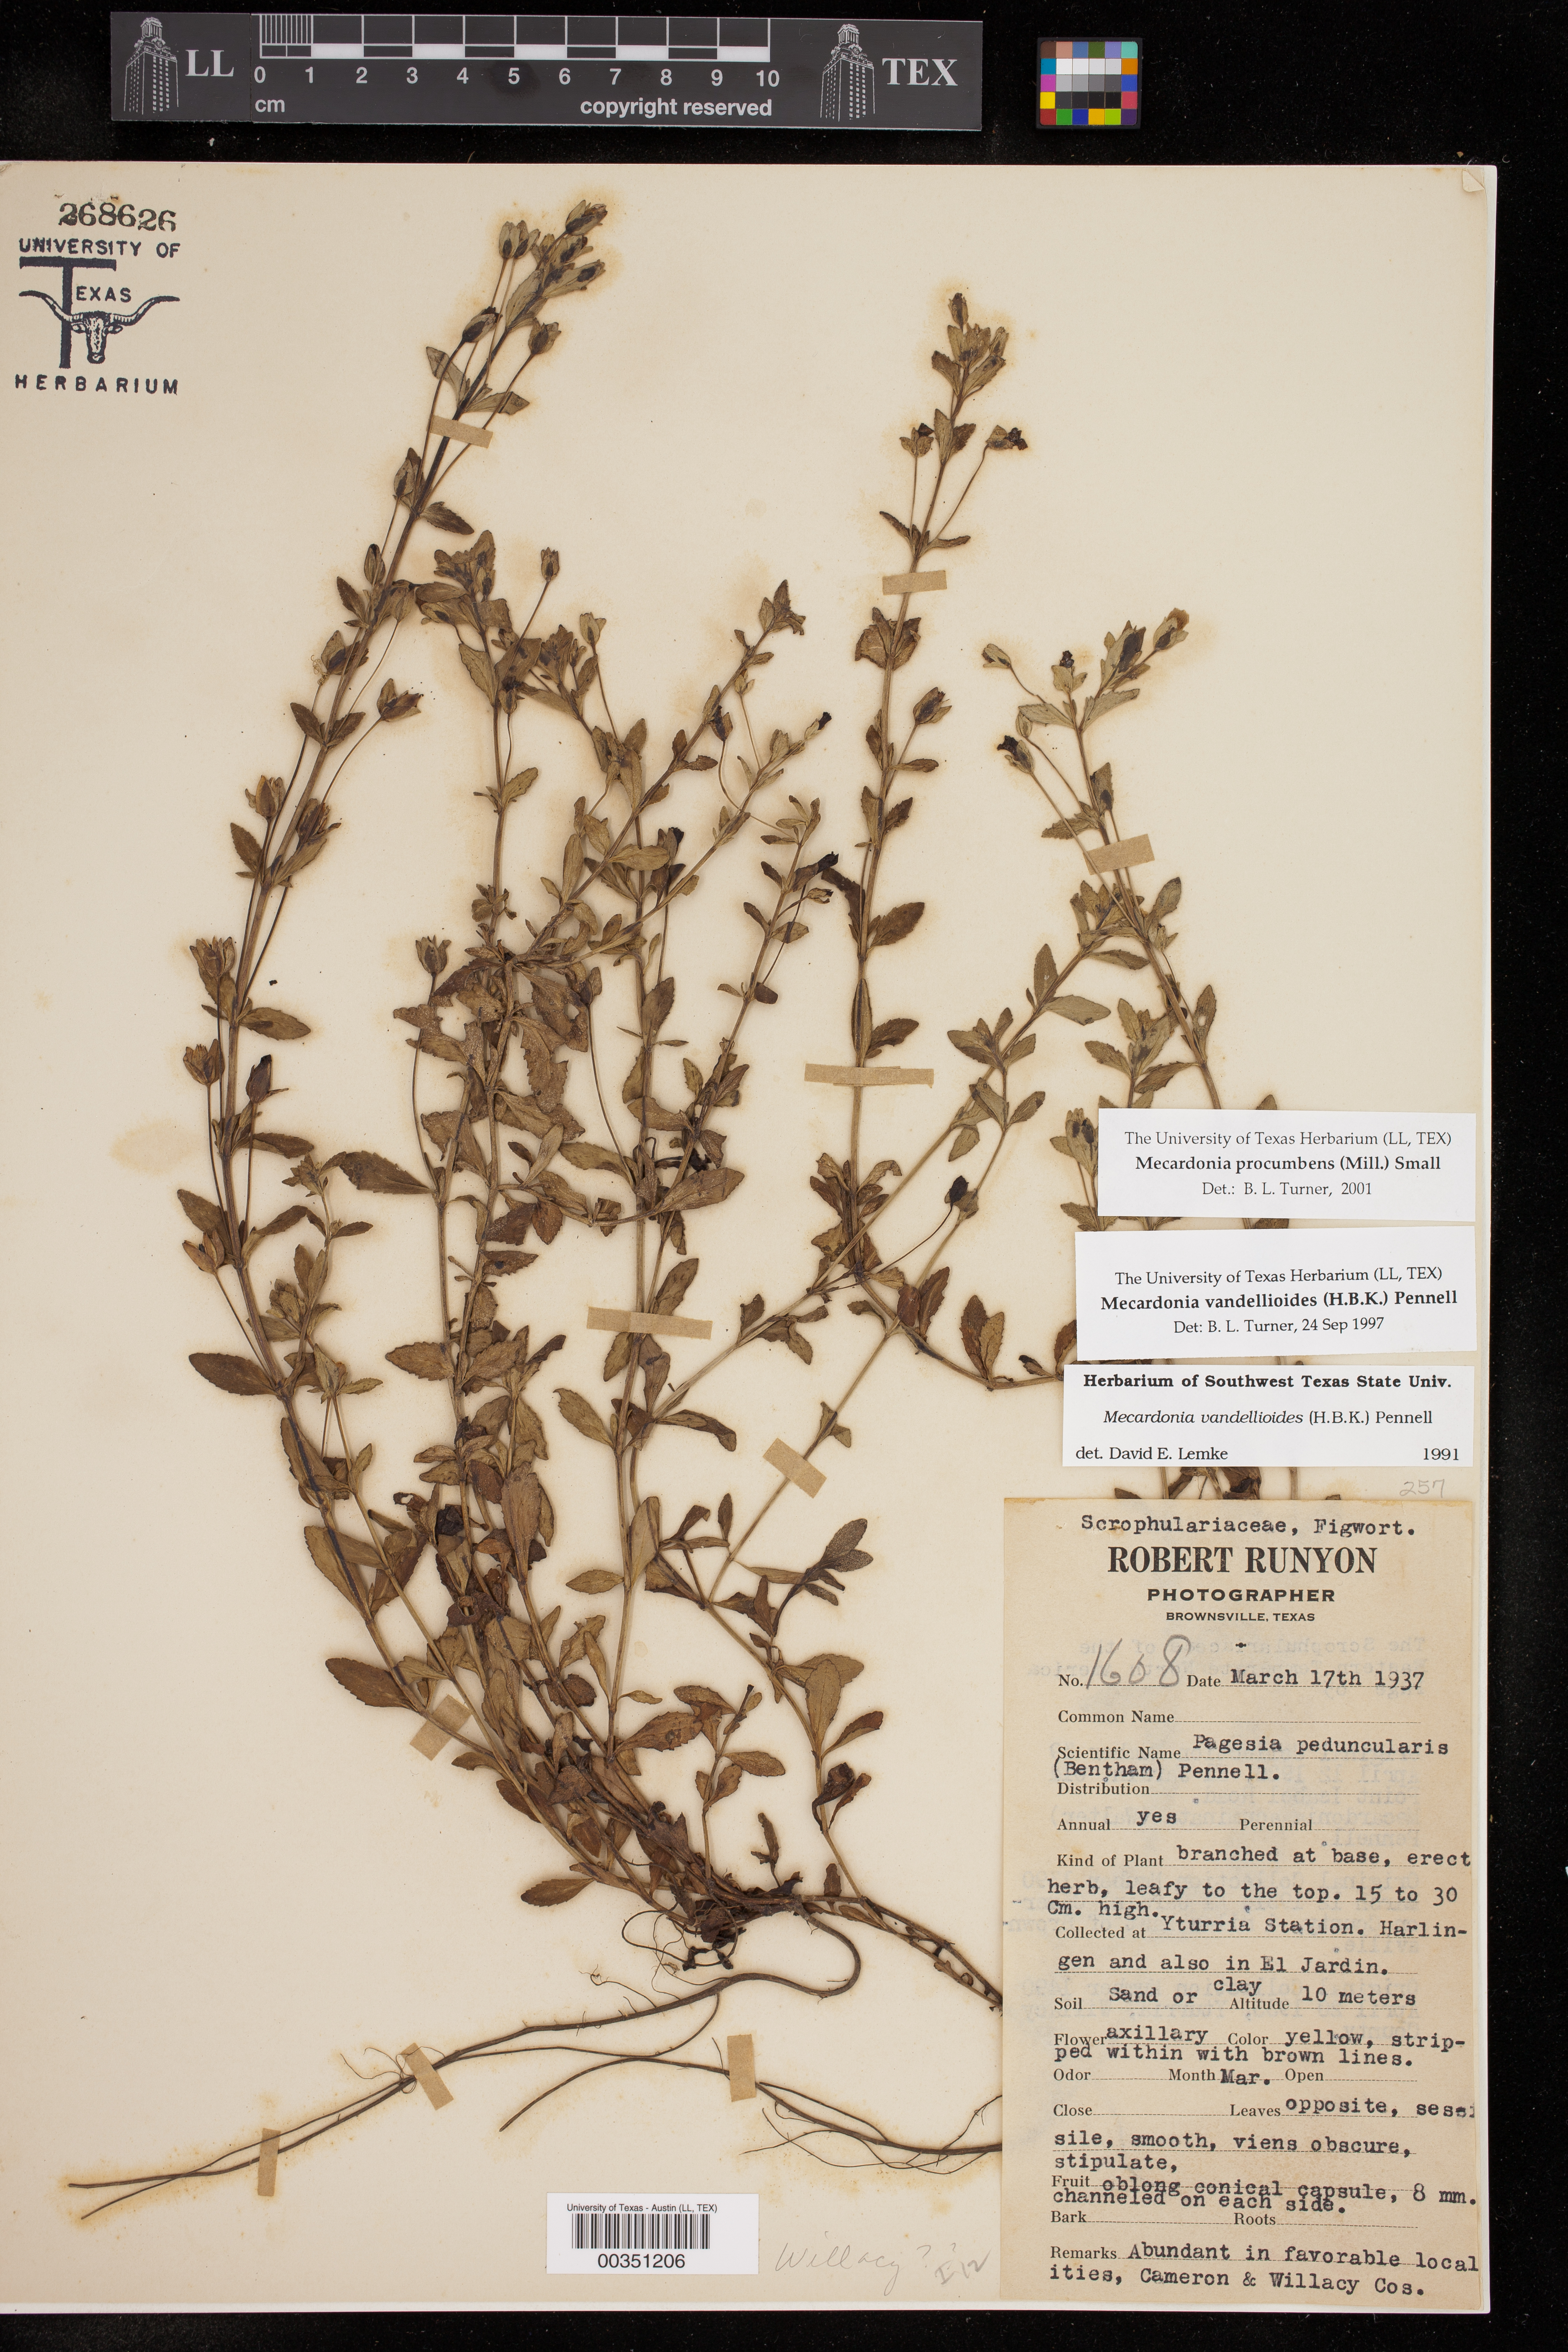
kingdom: Plantae
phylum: Tracheophyta
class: Magnoliopsida
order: Lamiales
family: Plantaginaceae
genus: Mecardonia
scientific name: Mecardonia procumbens
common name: Baby jump-up
